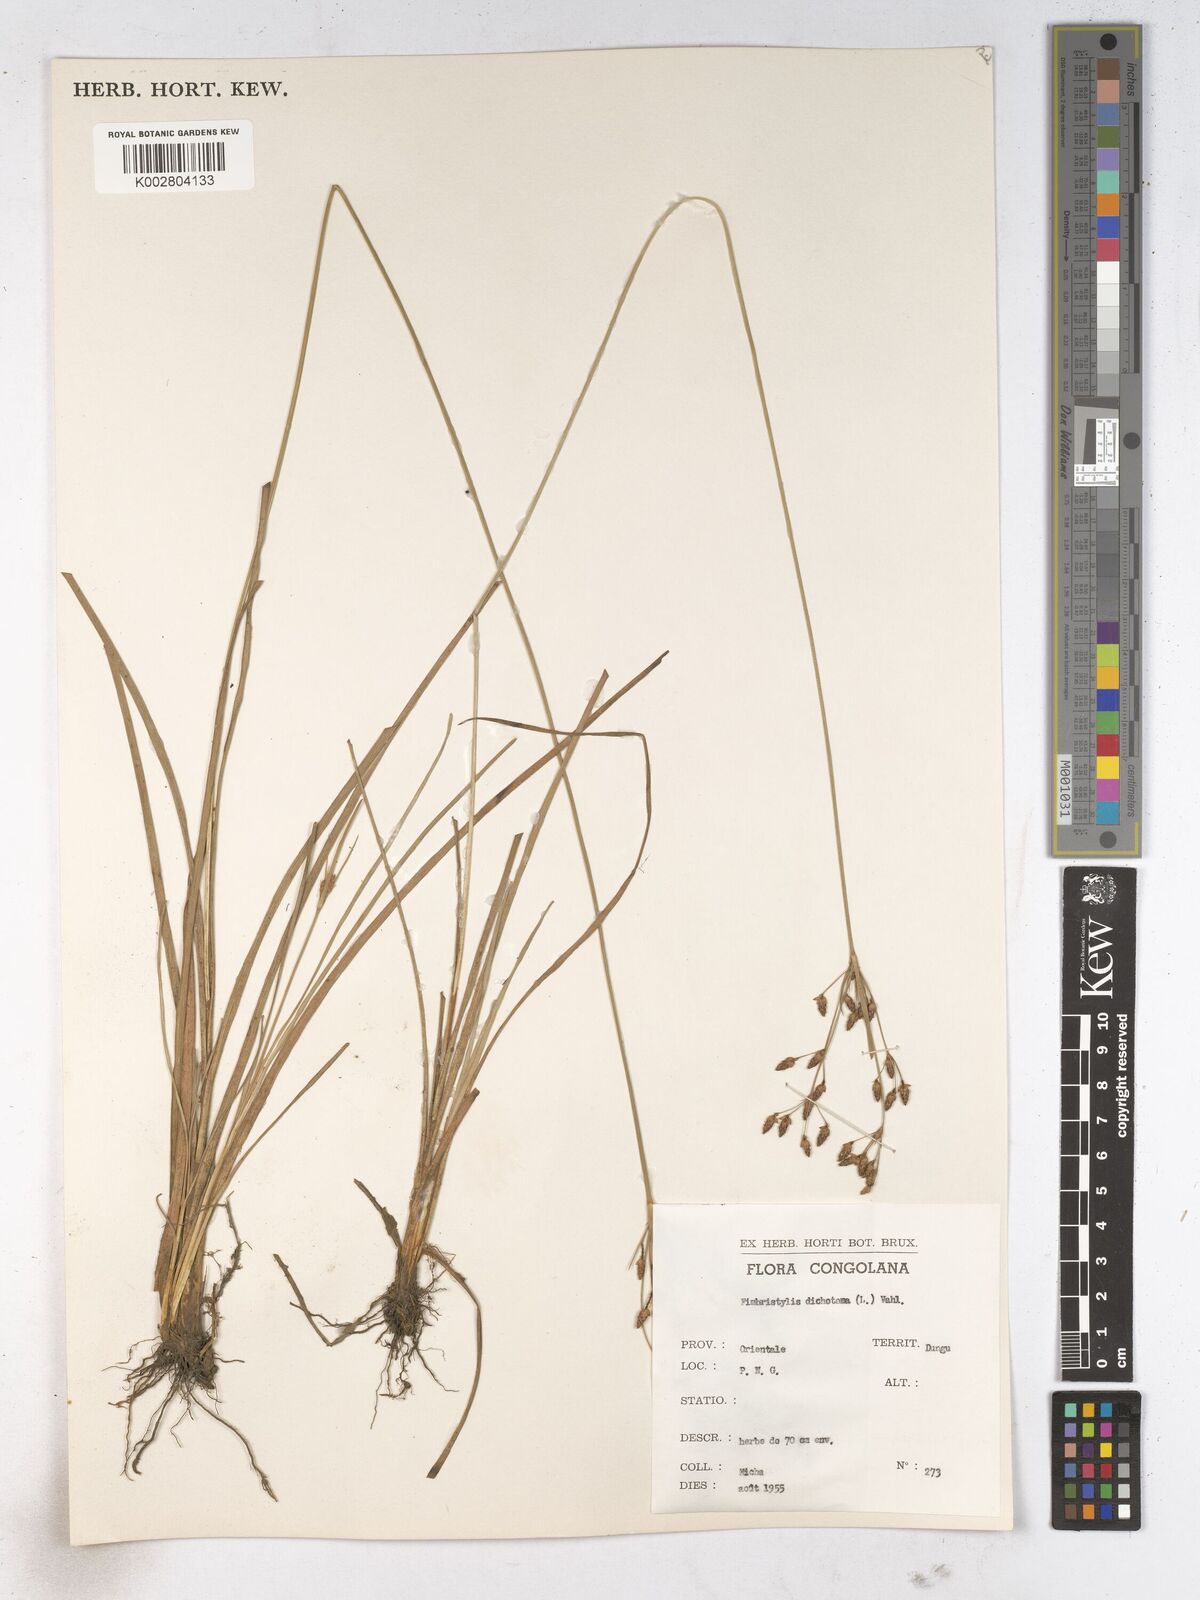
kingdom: Plantae
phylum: Tracheophyta
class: Liliopsida
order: Poales
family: Cyperaceae
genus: Fimbristylis
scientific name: Fimbristylis dichotoma
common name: Forked fimbry
